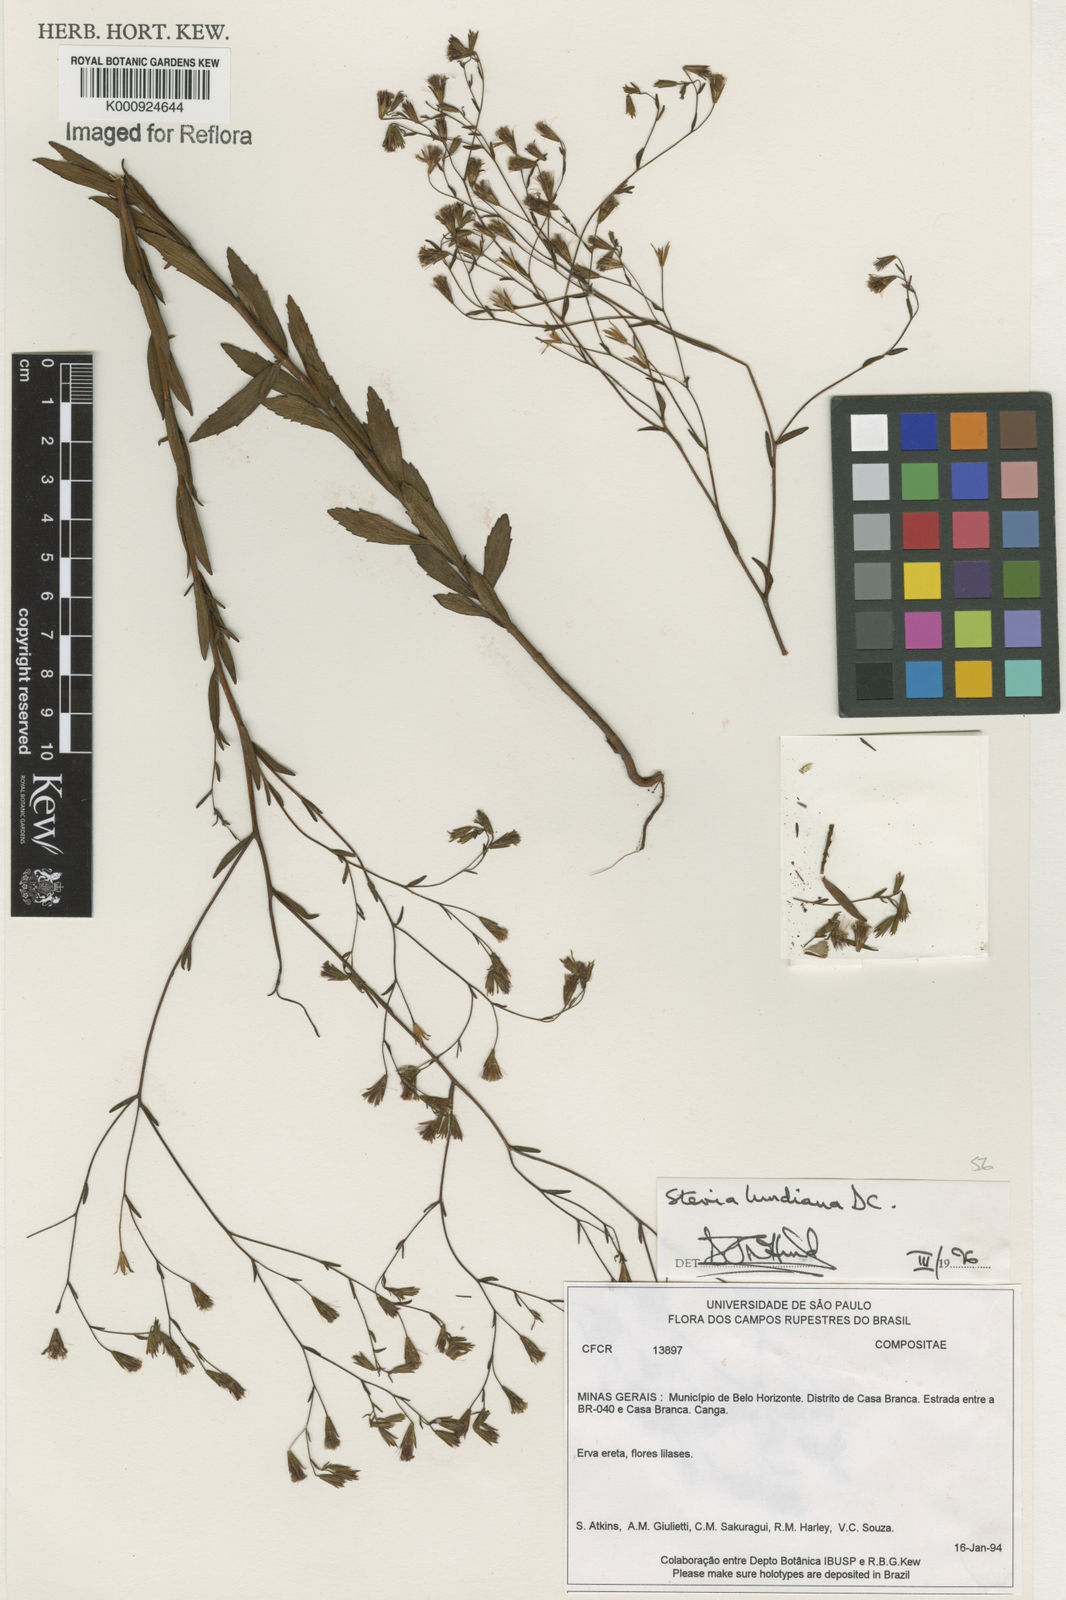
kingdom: Plantae
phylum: Tracheophyta
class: Magnoliopsida
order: Asterales
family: Asteraceae
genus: Stevia
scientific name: Stevia lundiana
